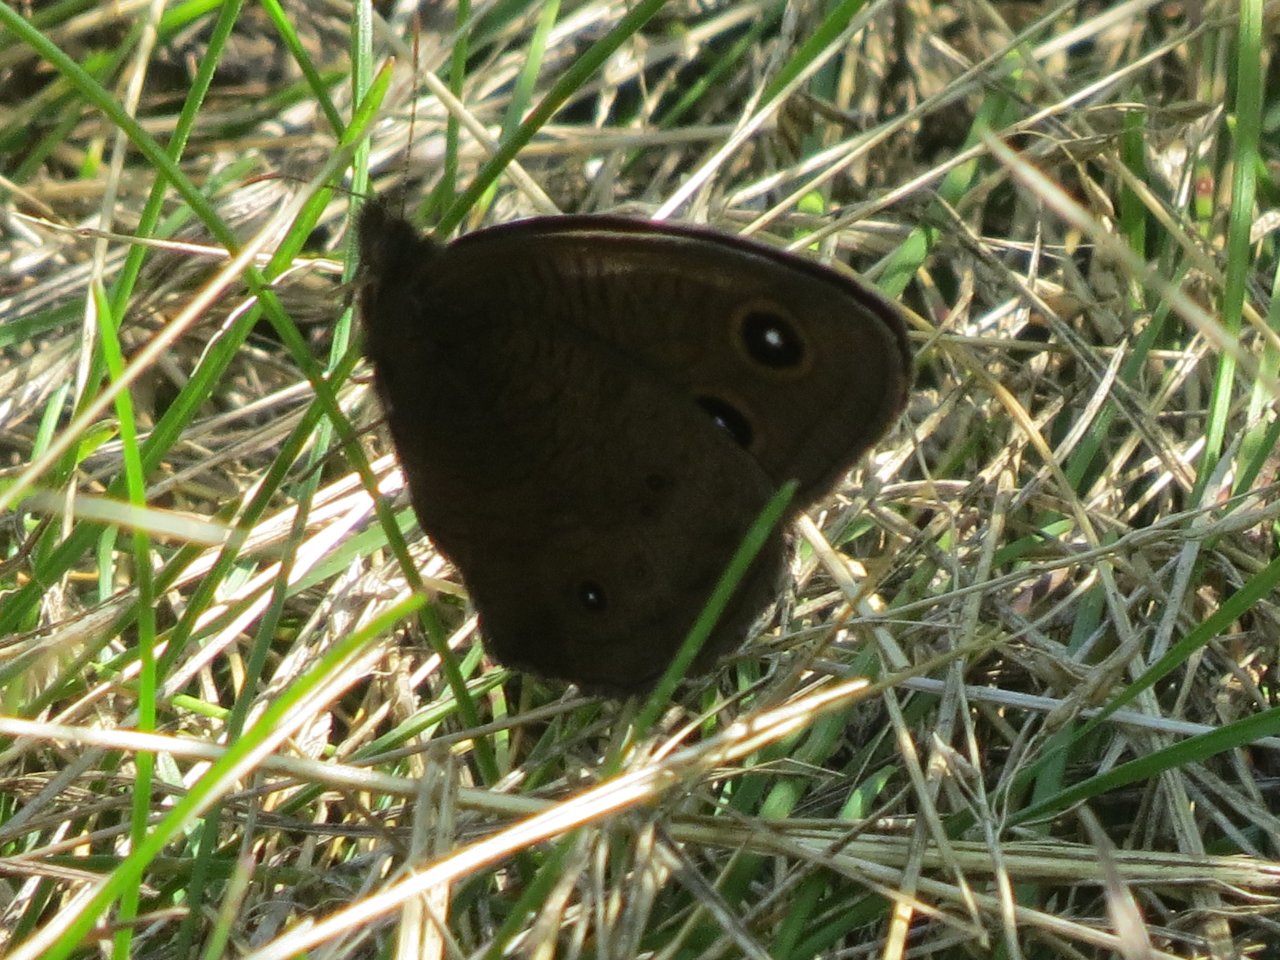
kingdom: Animalia
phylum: Arthropoda
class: Insecta
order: Lepidoptera
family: Nymphalidae
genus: Cercyonis
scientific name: Cercyonis pegala
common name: Common Wood-Nymph
